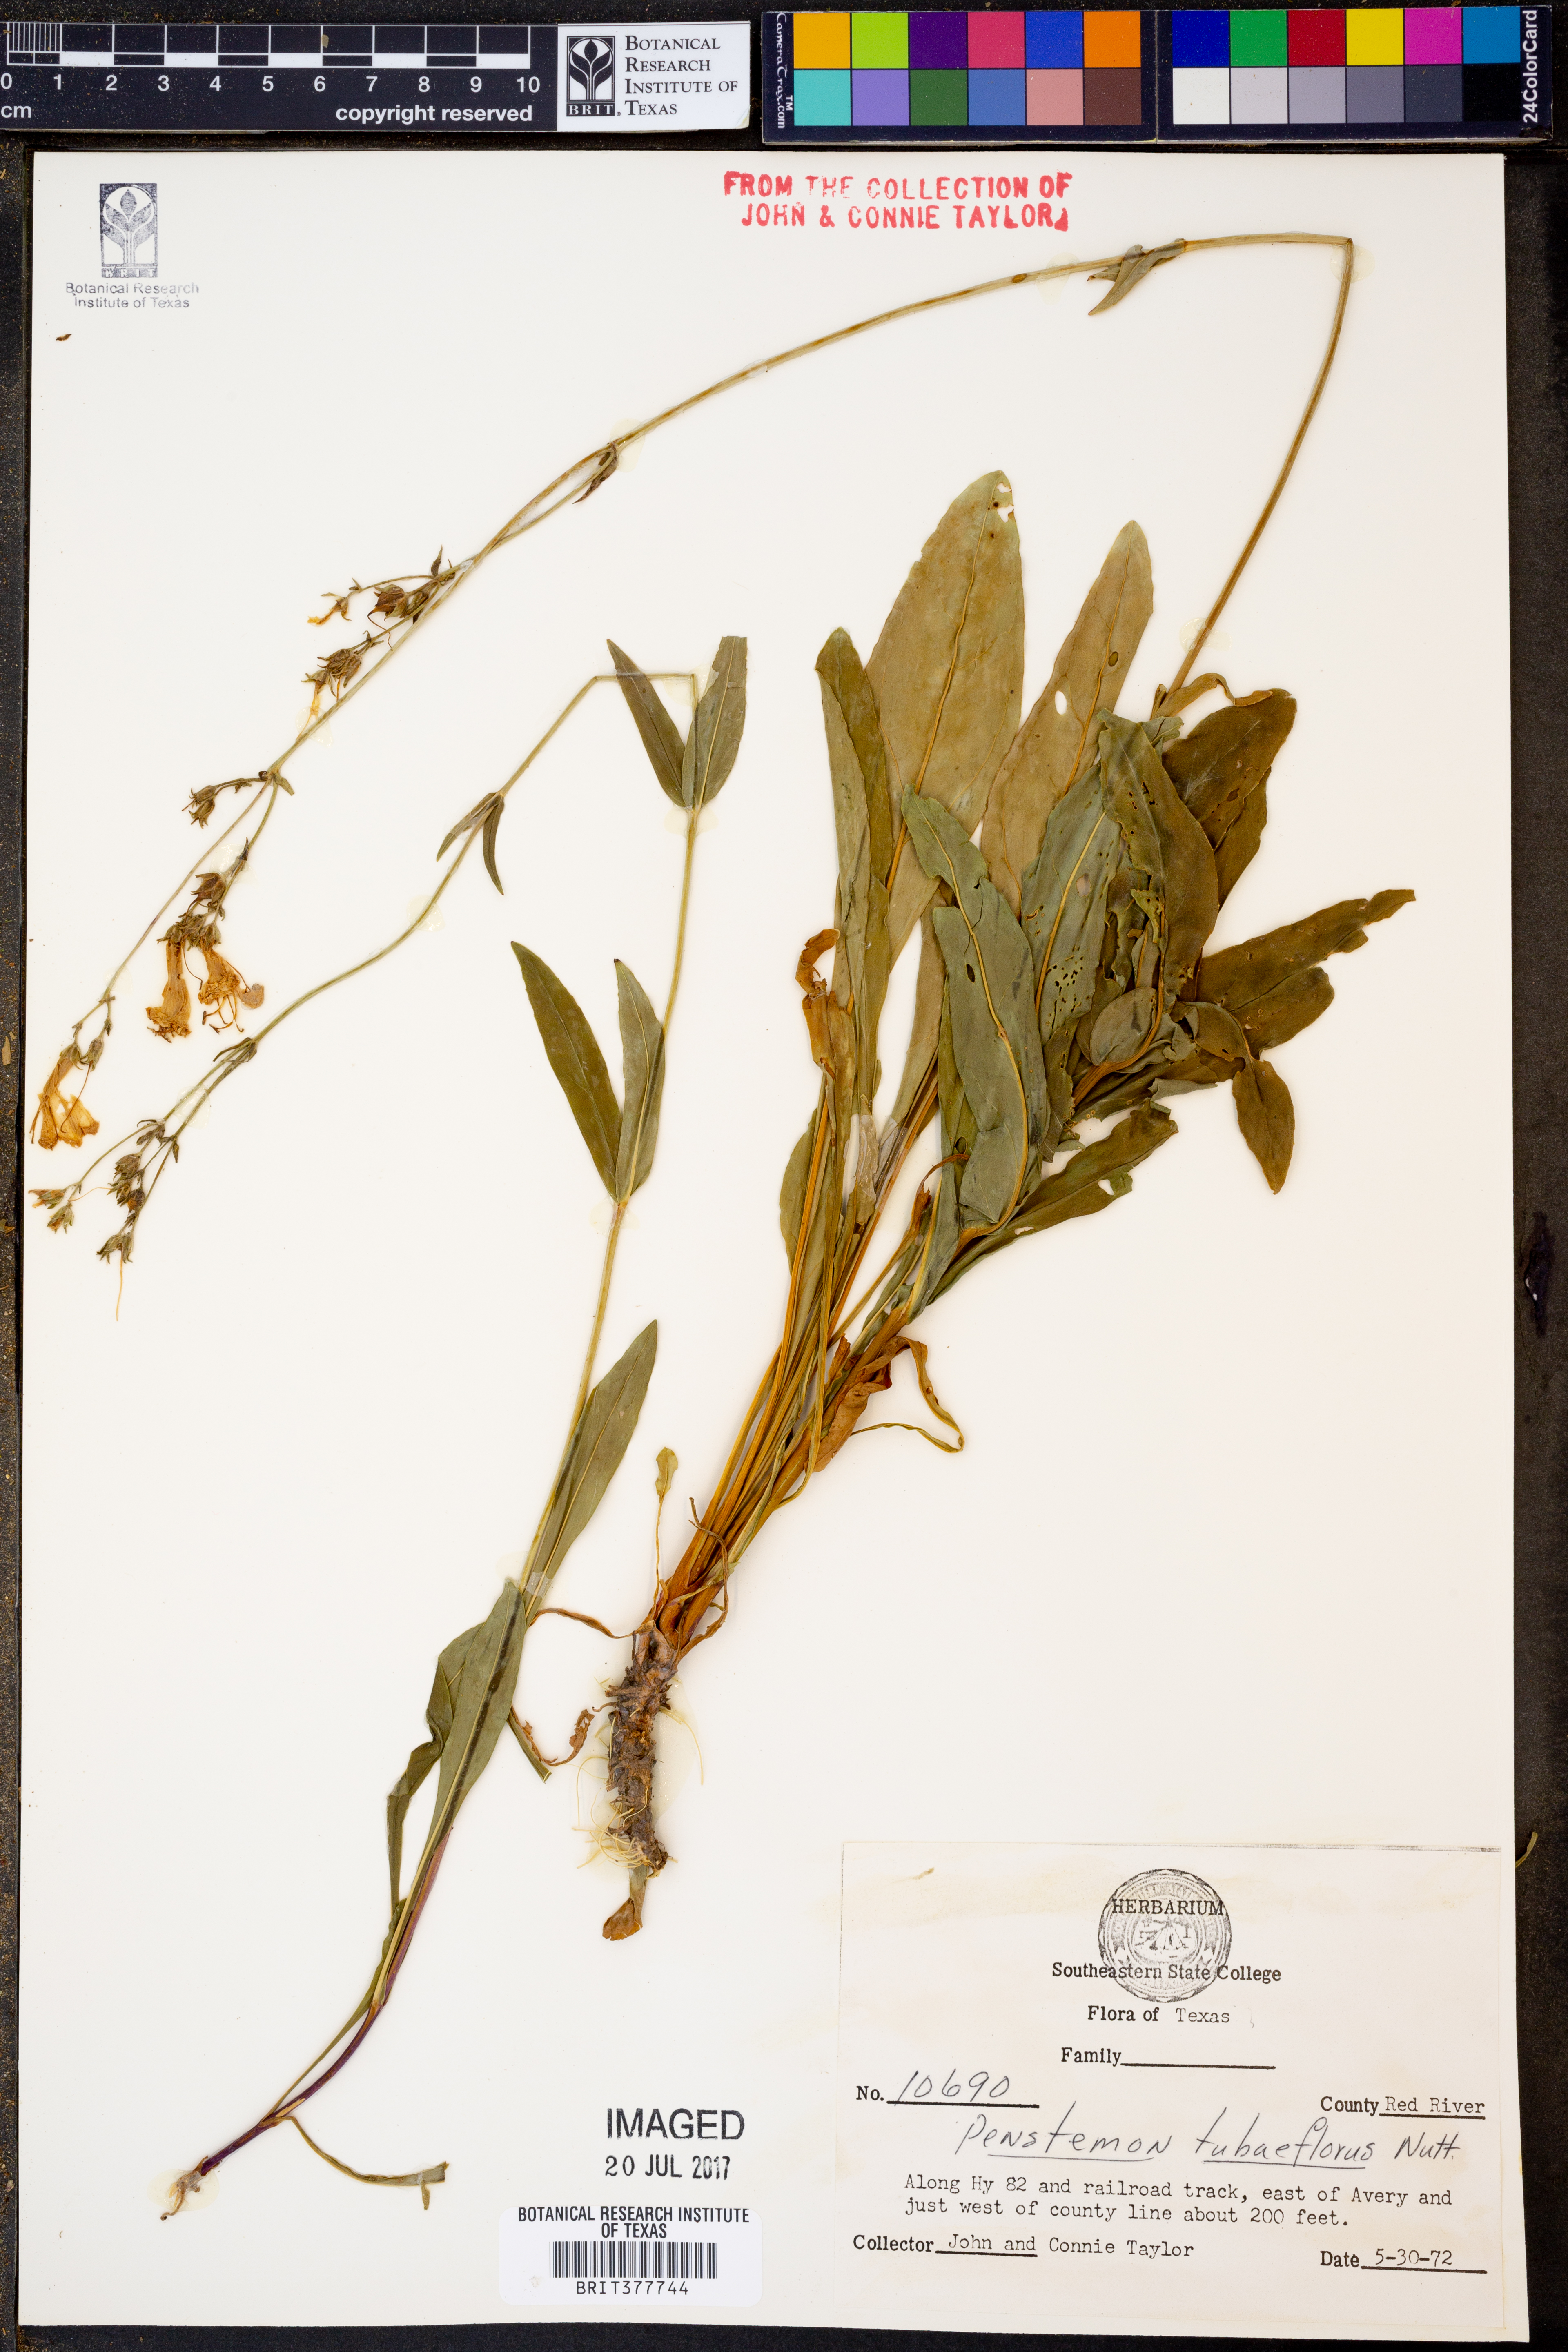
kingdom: Plantae
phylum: Tracheophyta
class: Magnoliopsida
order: Lamiales
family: Plantaginaceae
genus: Penstemon
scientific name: Penstemon tubaeflorus
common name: White wand beardtongue
